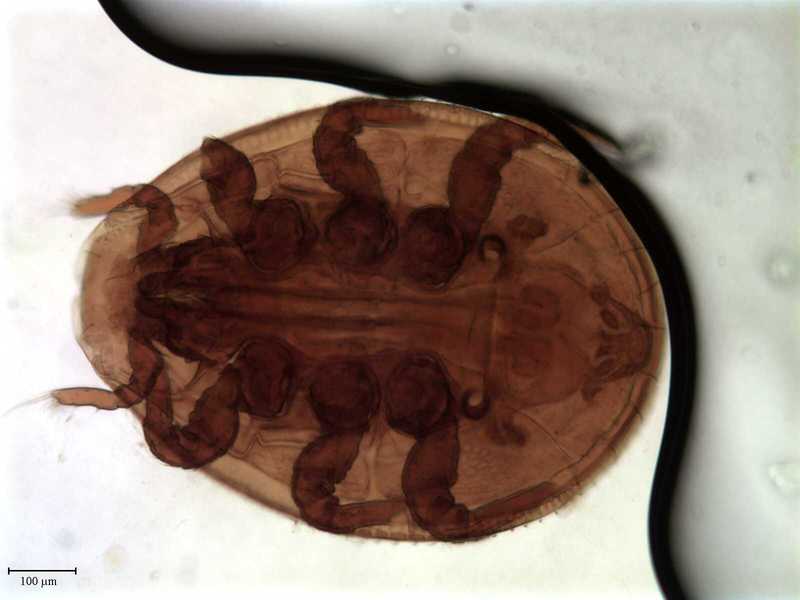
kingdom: Animalia
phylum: Arthropoda
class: Arachnida
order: Mesostigmata
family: Uropodidae
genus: Cilliba
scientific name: Cilliba
